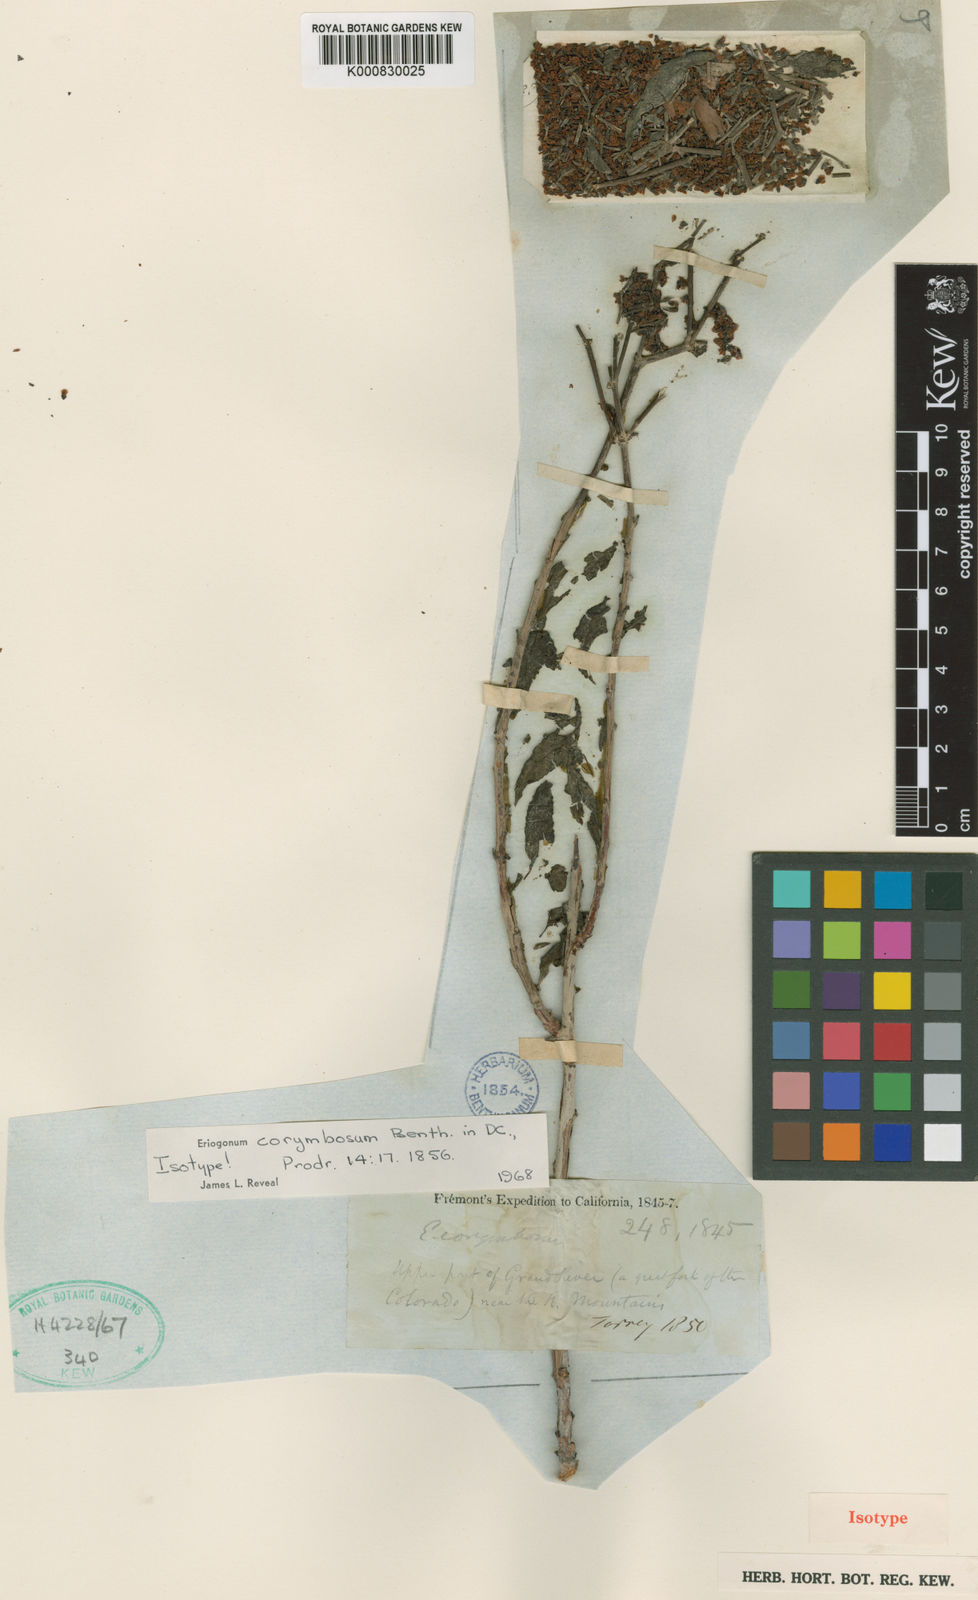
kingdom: Plantae
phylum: Tracheophyta
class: Magnoliopsida
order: Caryophyllales
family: Polygonaceae
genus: Eriogonum
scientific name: Eriogonum corymbosum
